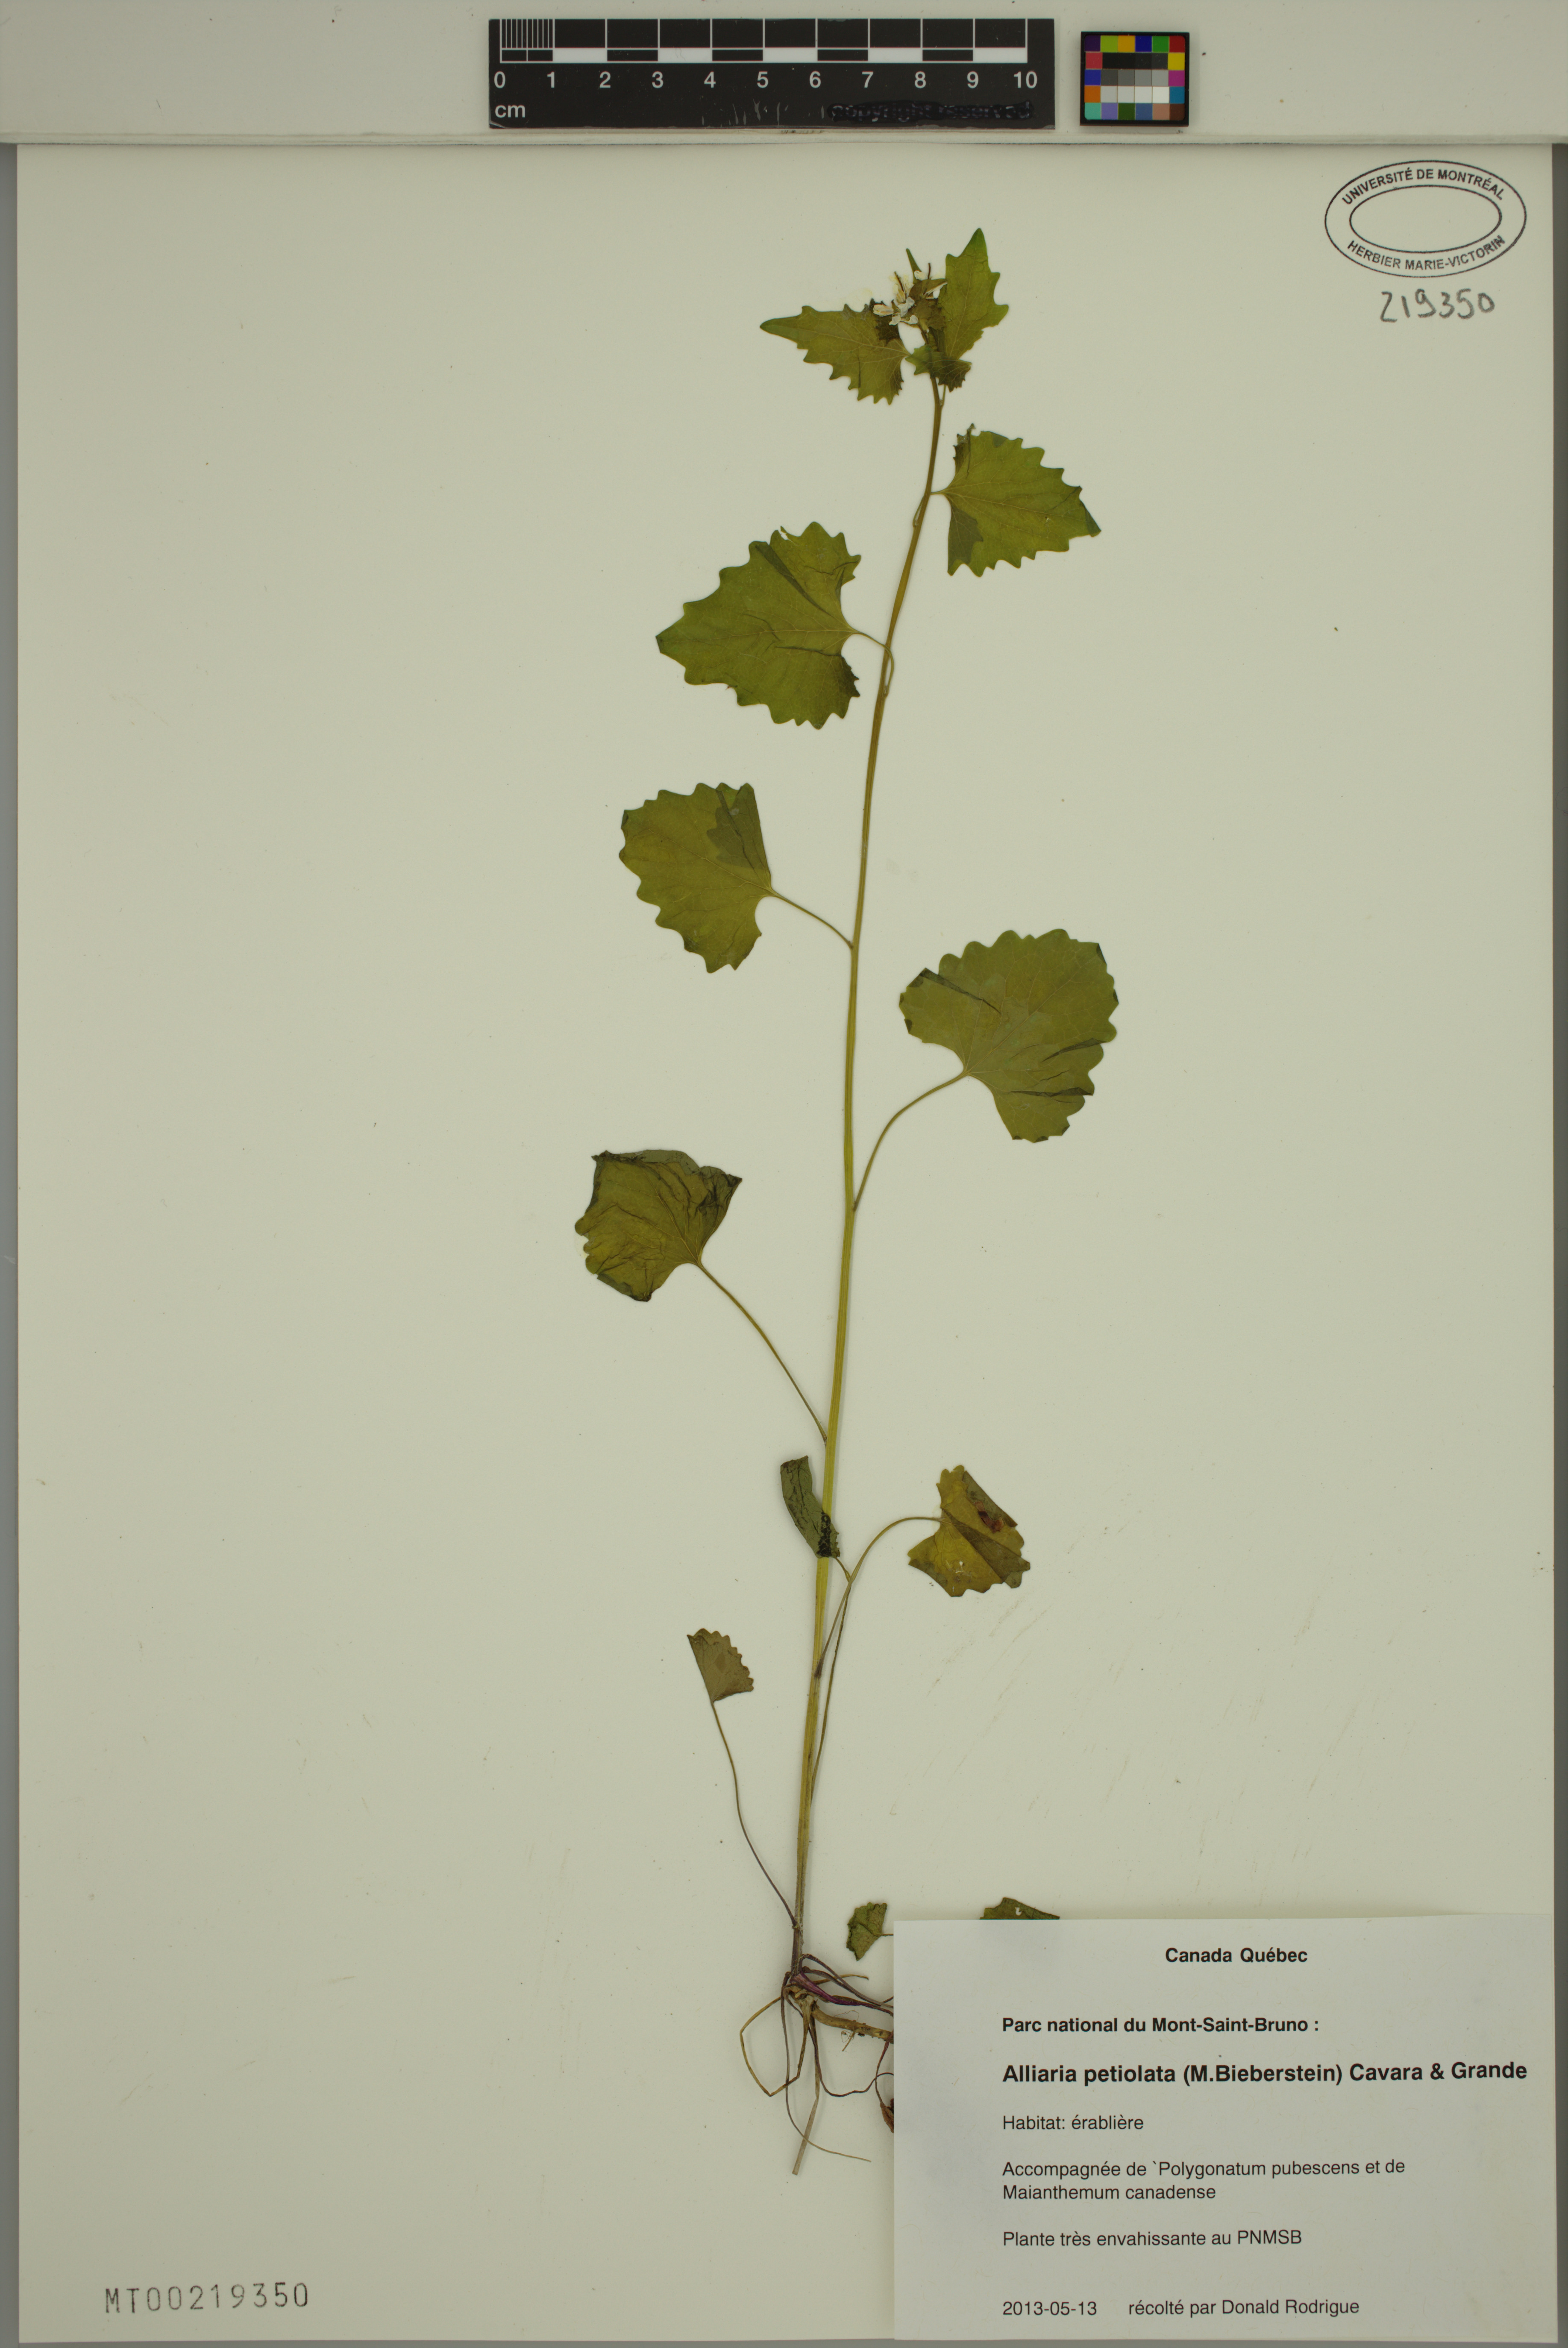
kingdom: Plantae
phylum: Tracheophyta
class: Magnoliopsida
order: Brassicales
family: Brassicaceae
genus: Alliaria
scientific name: Alliaria petiolata
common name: Garlic mustard
